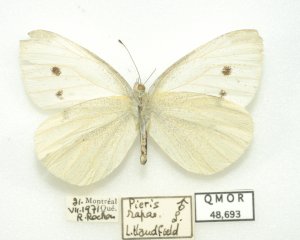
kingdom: Animalia
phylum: Arthropoda
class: Insecta
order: Lepidoptera
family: Pieridae
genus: Pieris
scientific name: Pieris rapae
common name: Cabbage White
